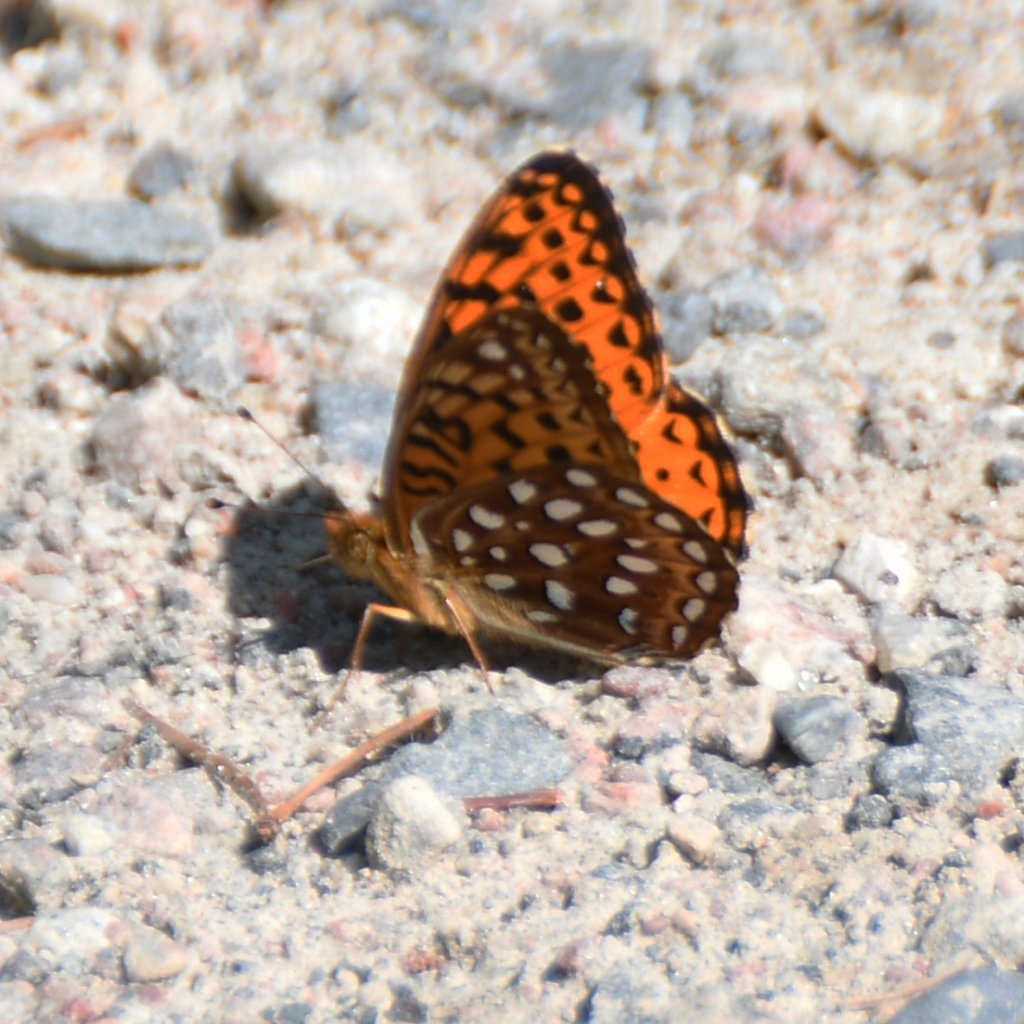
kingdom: Animalia
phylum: Arthropoda
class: Insecta
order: Lepidoptera
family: Nymphalidae
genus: Speyeria
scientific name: Speyeria aphrodite
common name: Aphrodite Fritillary
